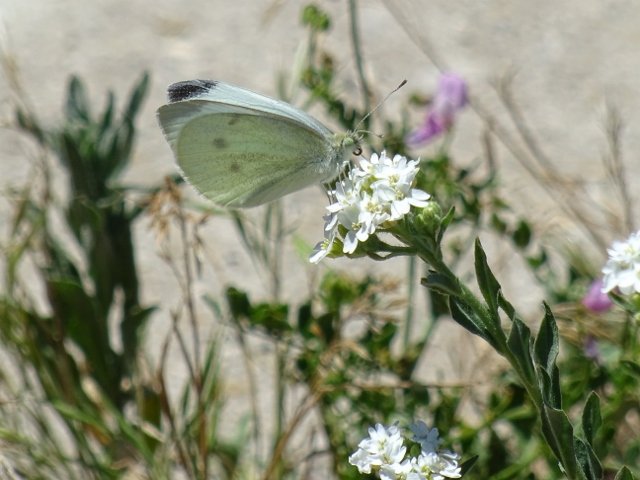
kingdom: Animalia
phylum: Arthropoda
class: Insecta
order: Lepidoptera
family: Pieridae
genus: Pieris
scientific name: Pieris rapae
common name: Cabbage White
